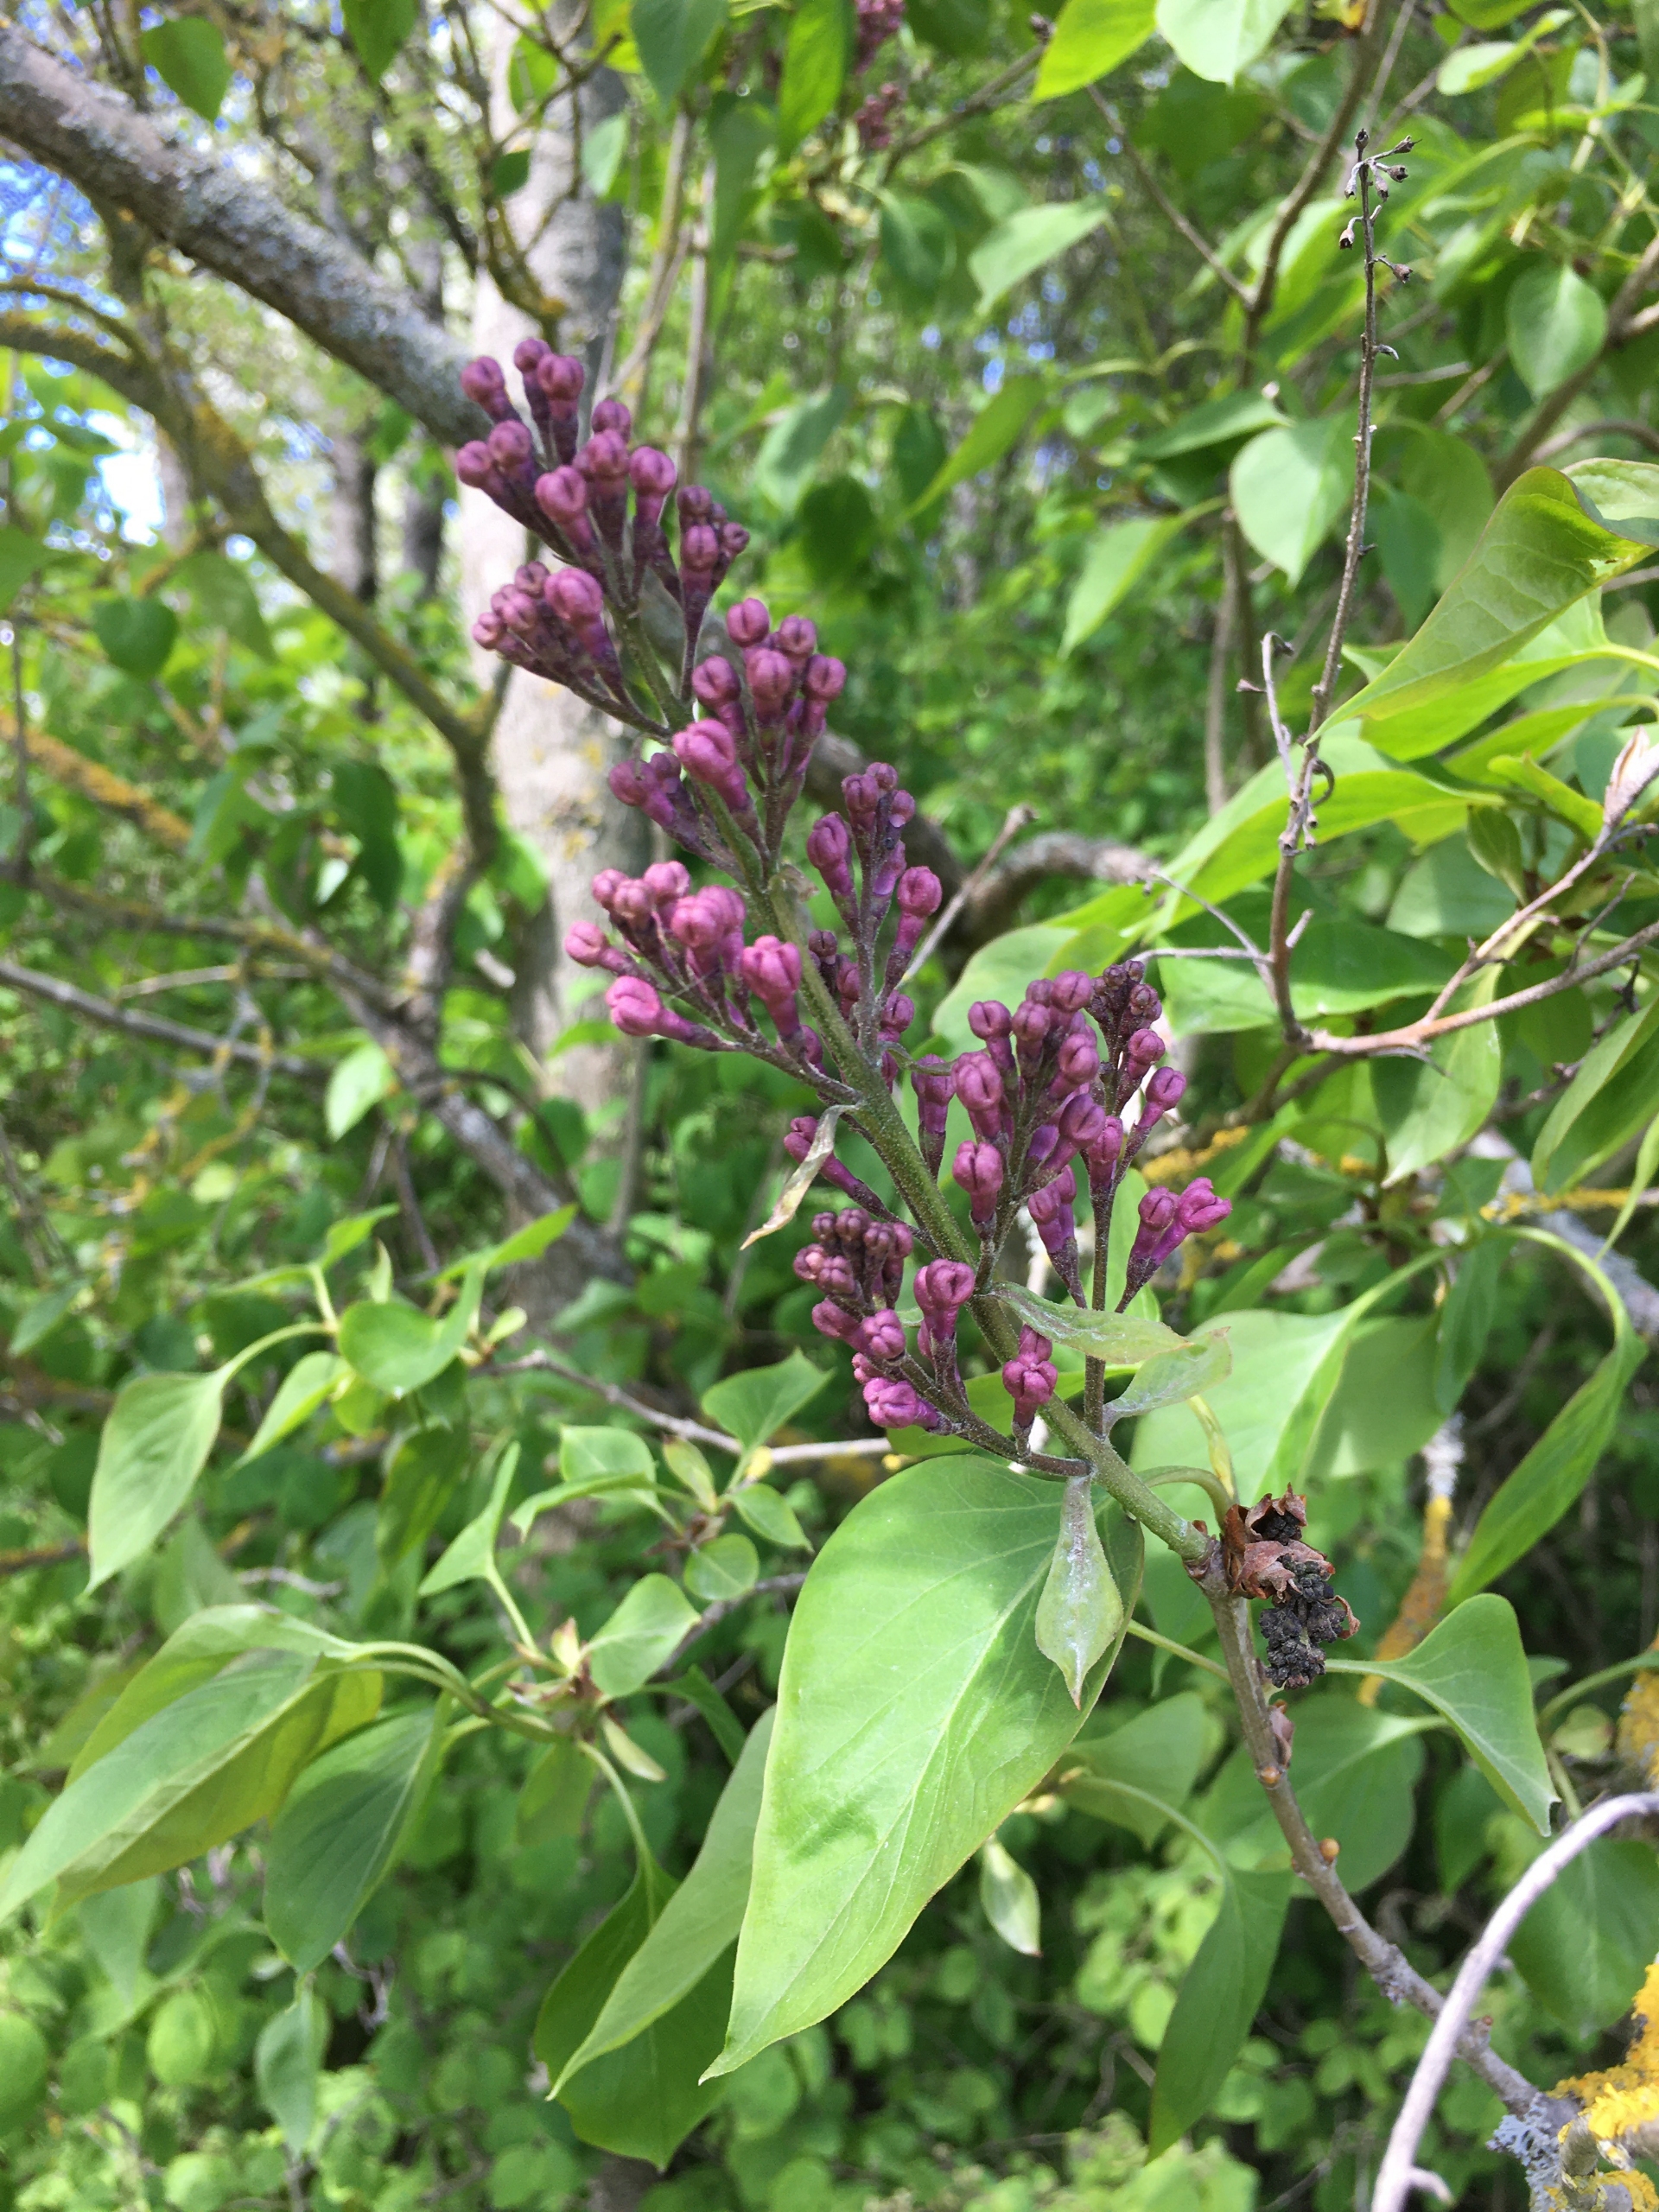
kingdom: Plantae
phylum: Tracheophyta
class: Magnoliopsida
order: Lamiales
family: Oleaceae
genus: Syringa
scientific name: Syringa vulgaris
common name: Syren
